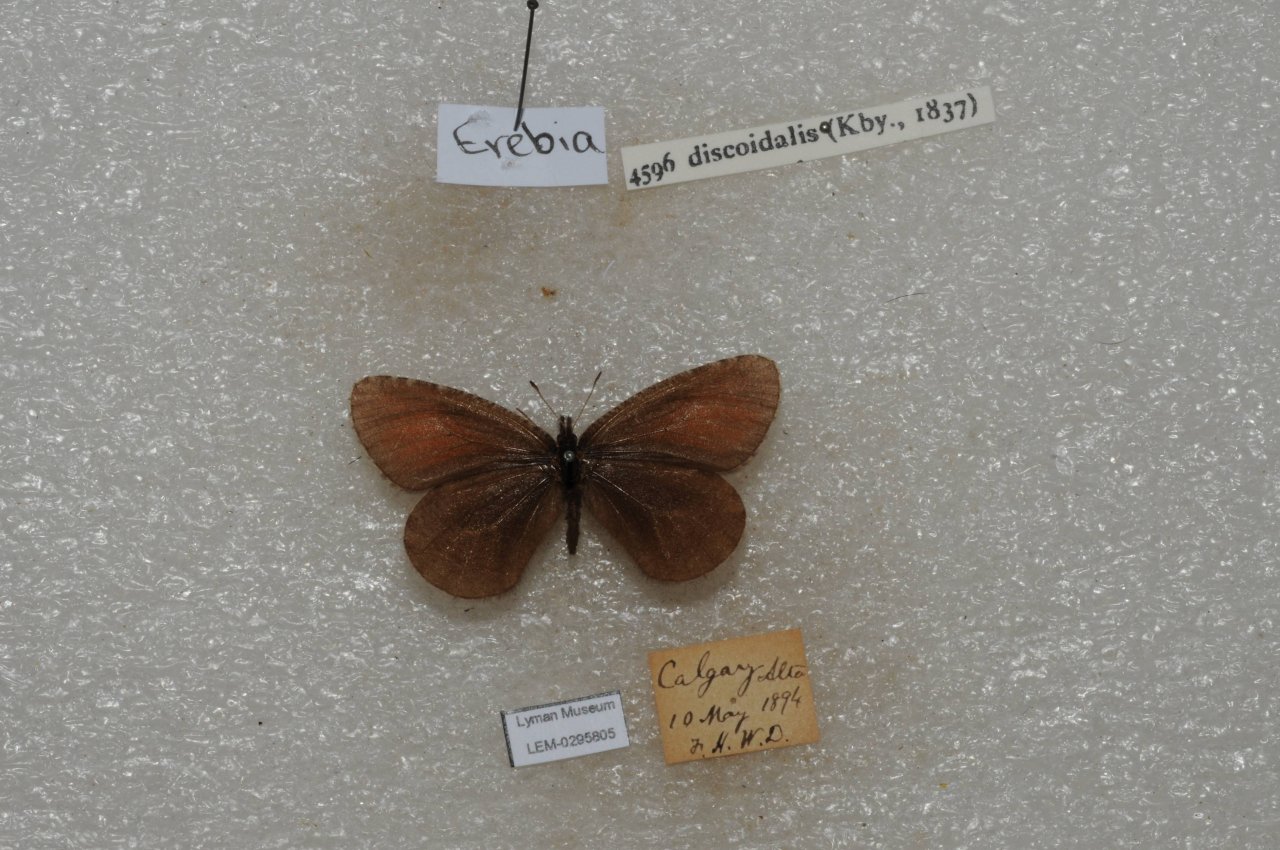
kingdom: Animalia
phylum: Arthropoda
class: Insecta
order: Lepidoptera
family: Nymphalidae
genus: Erebia
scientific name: Erebia discoidalis
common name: Red-disked Alpine
